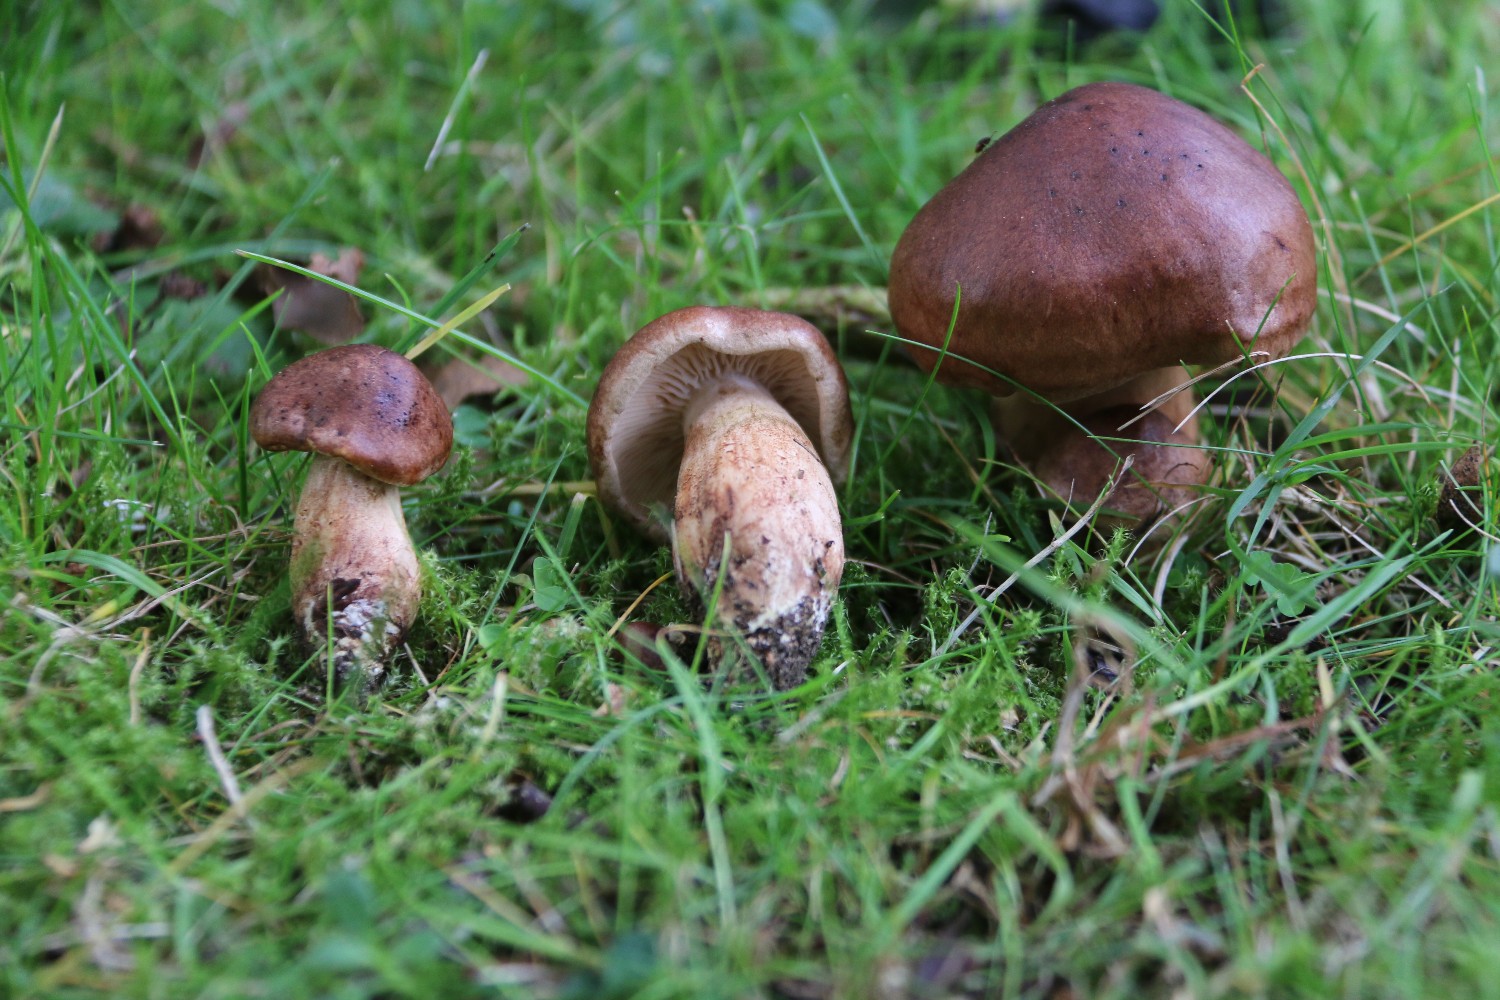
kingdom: Fungi
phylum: Basidiomycota
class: Agaricomycetes
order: Agaricales
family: Tricholomataceae
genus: Tricholoma
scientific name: Tricholoma fulvum
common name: birke-ridderhat
